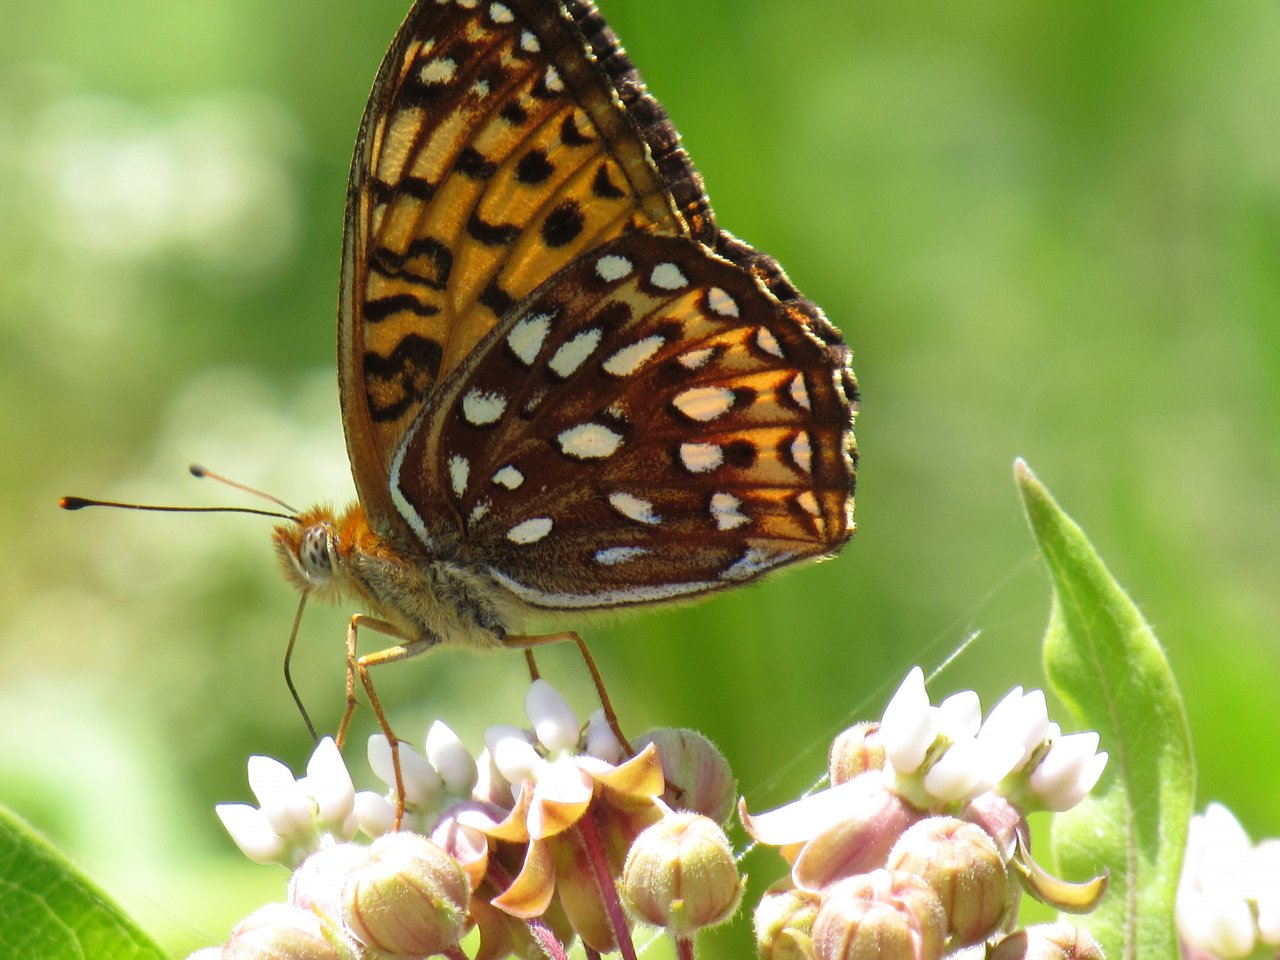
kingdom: Animalia
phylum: Arthropoda
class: Insecta
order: Lepidoptera
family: Nymphalidae
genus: Speyeria
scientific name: Speyeria atlantis
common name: Atlantis Fritillary
